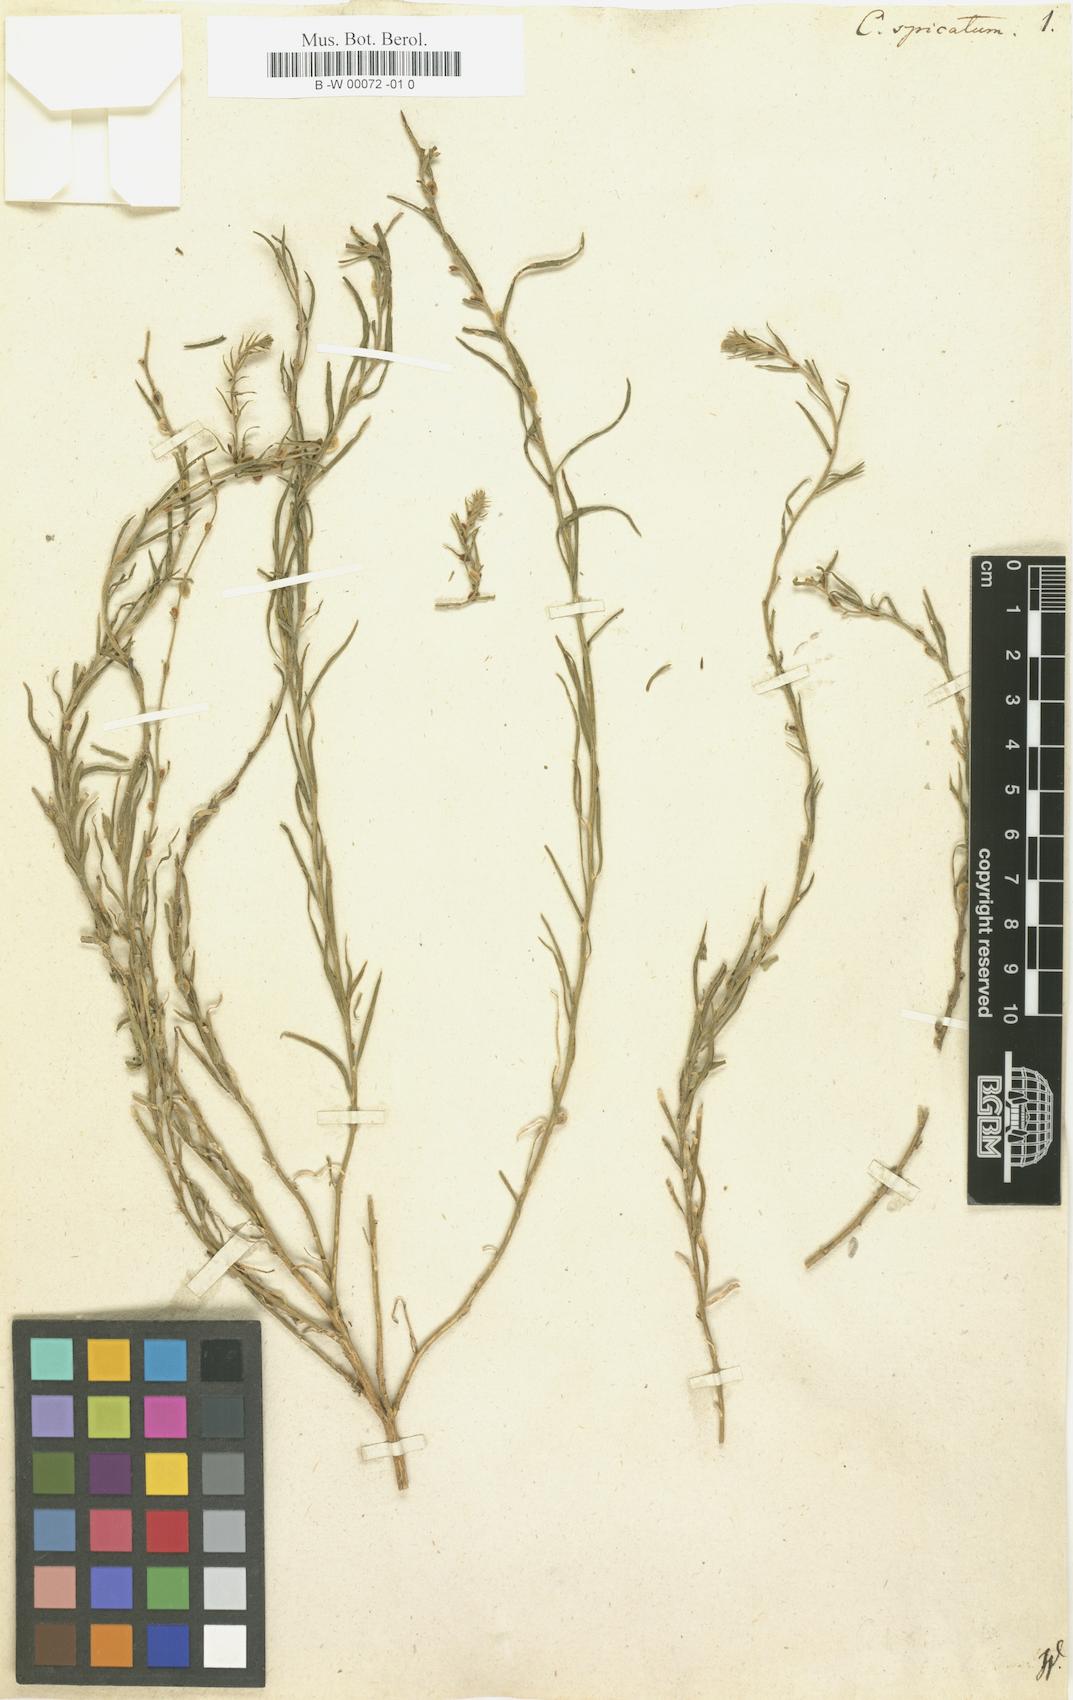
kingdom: Plantae
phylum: Tracheophyta
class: Magnoliopsida
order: Caryophyllales
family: Amaranthaceae
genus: Corispermum
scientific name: Corispermum spicatum
